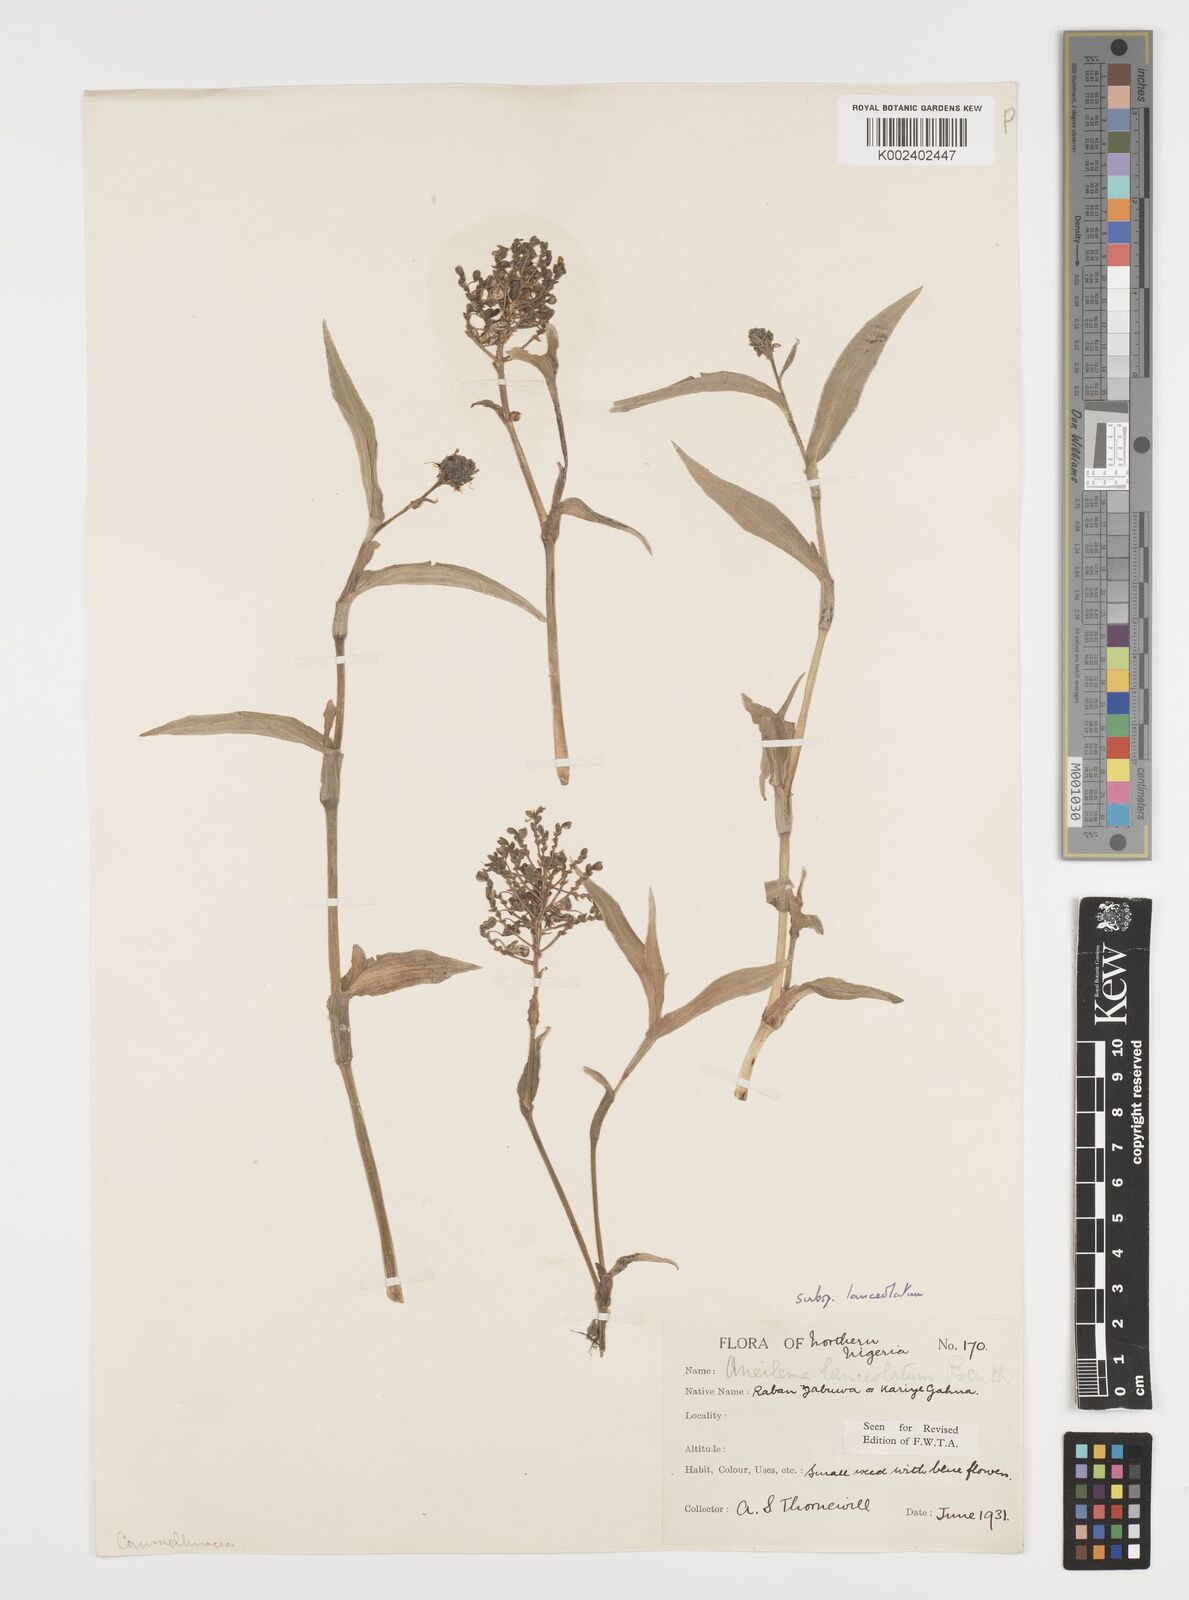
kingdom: Plantae
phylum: Tracheophyta
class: Liliopsida
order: Commelinales
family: Commelinaceae
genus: Aneilema
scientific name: Aneilema lanceolatum
